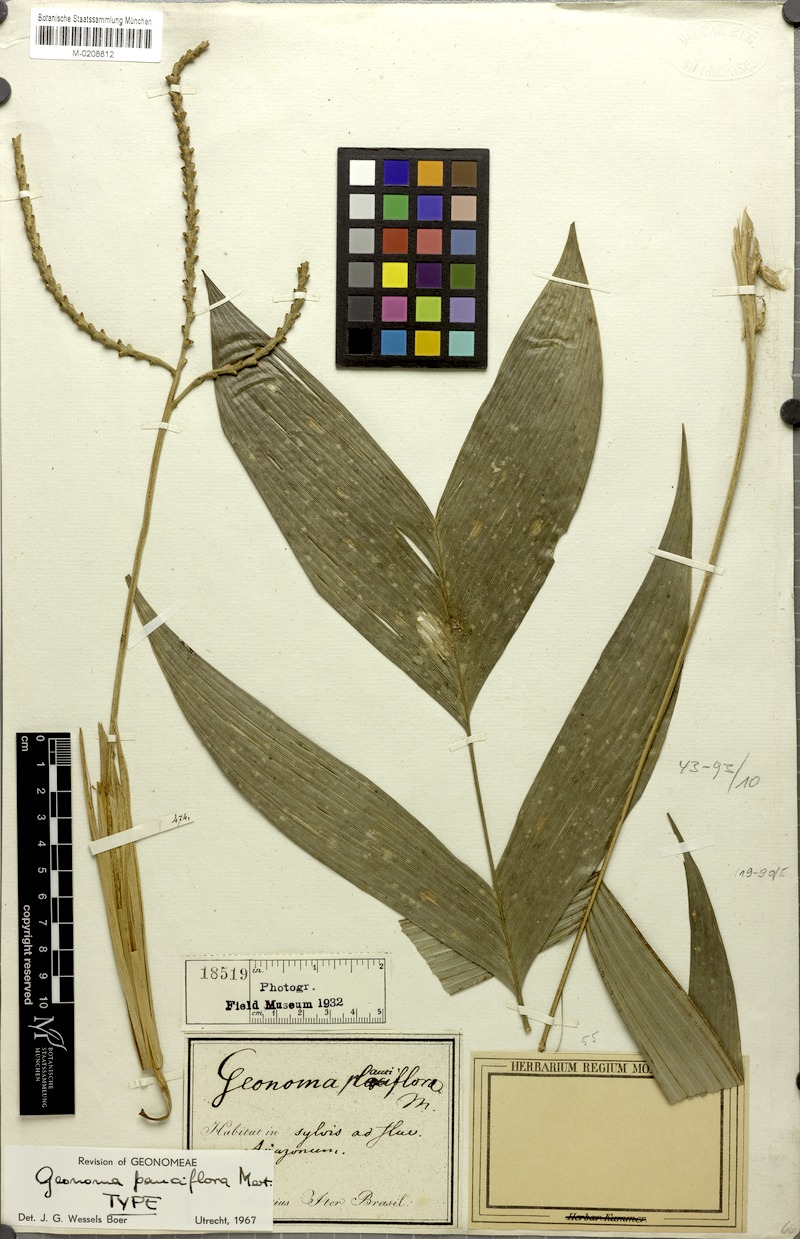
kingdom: Plantae
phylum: Tracheophyta
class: Liliopsida
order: Arecales
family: Arecaceae
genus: Geonoma
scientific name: Geonoma pauciflora
